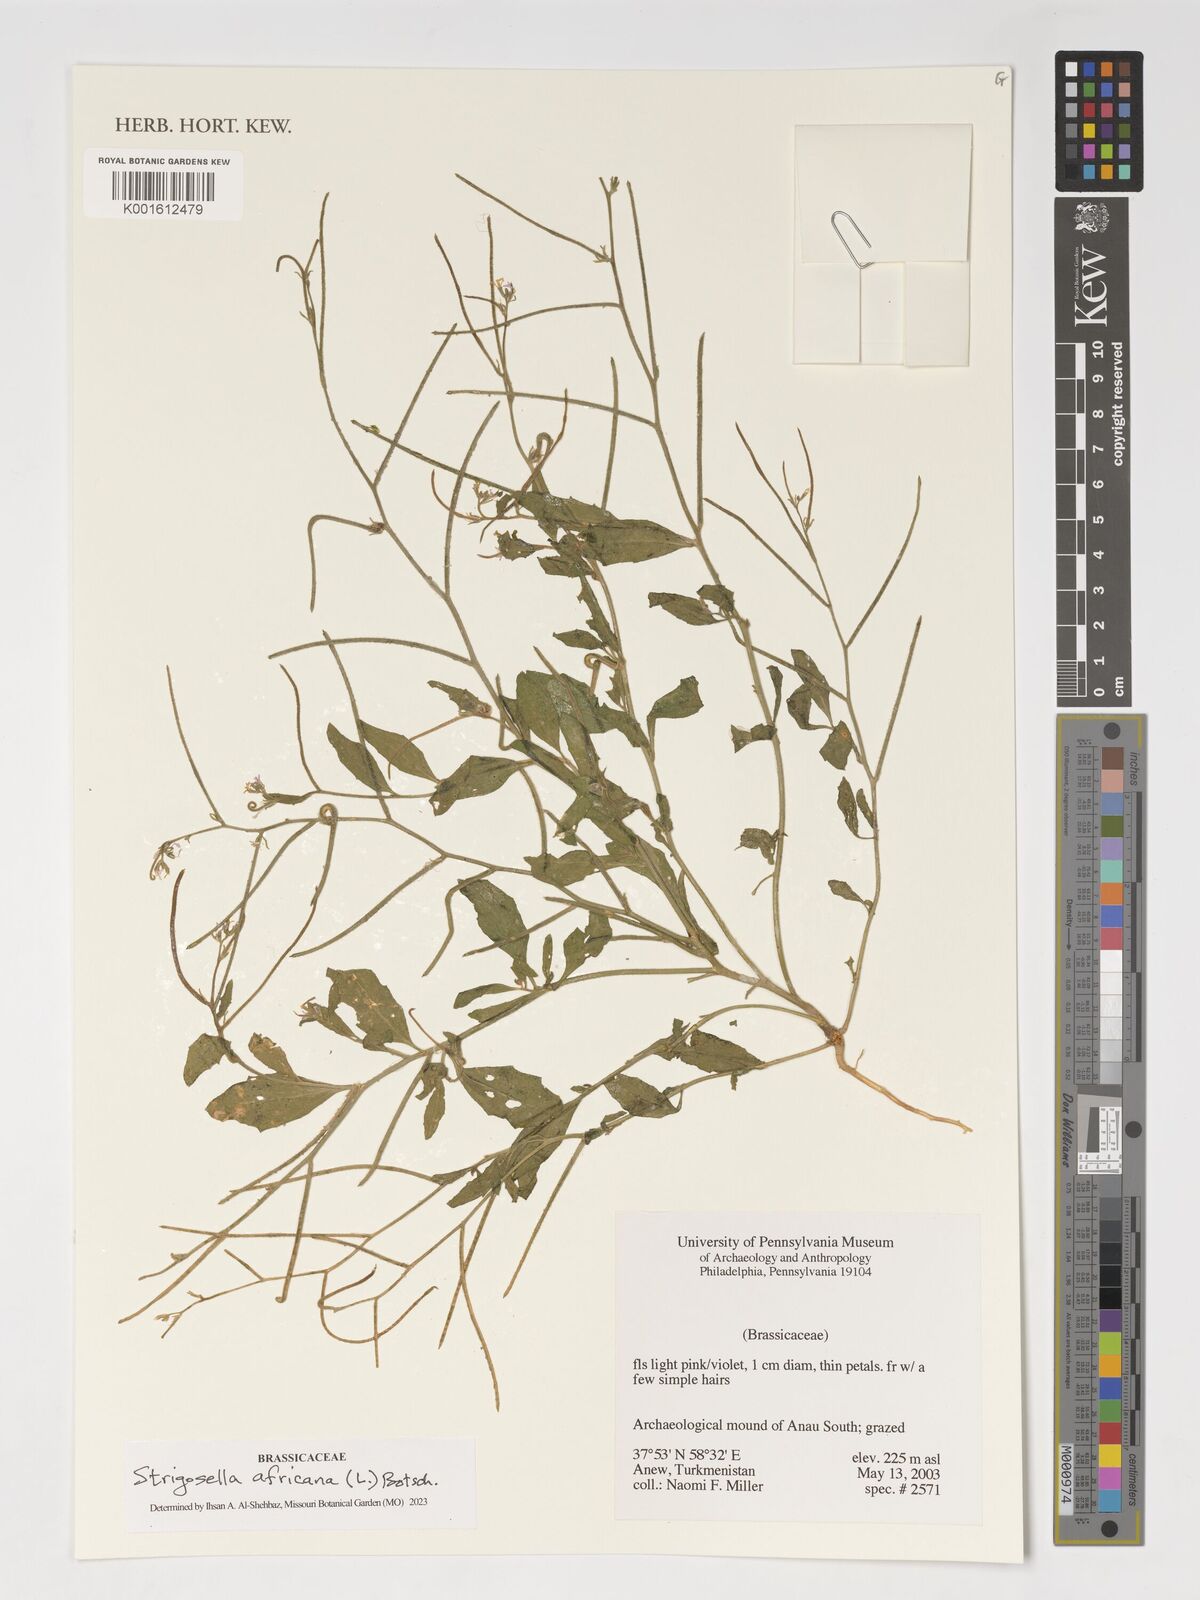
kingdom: Plantae
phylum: Tracheophyta
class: Magnoliopsida
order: Brassicales
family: Brassicaceae
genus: Strigosella
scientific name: Strigosella africana
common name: African mustard
